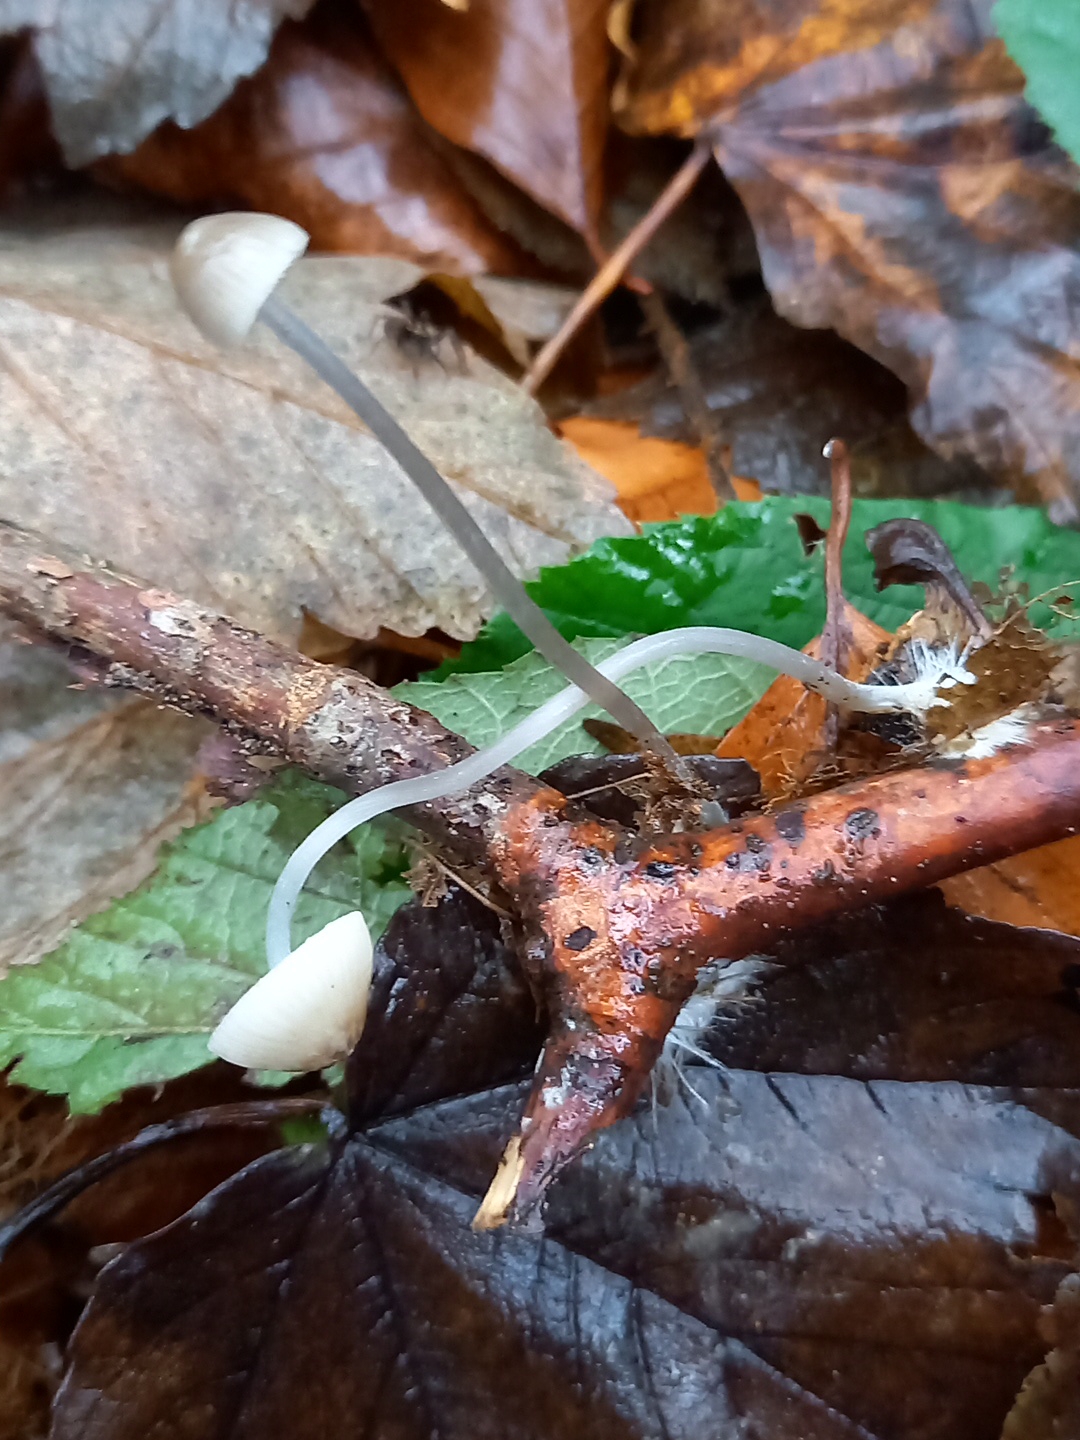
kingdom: Fungi
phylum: Basidiomycota
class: Agaricomycetes
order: Agaricales
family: Mycenaceae
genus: Mycena
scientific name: Mycena vitilis
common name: blankstokket huesvamp
